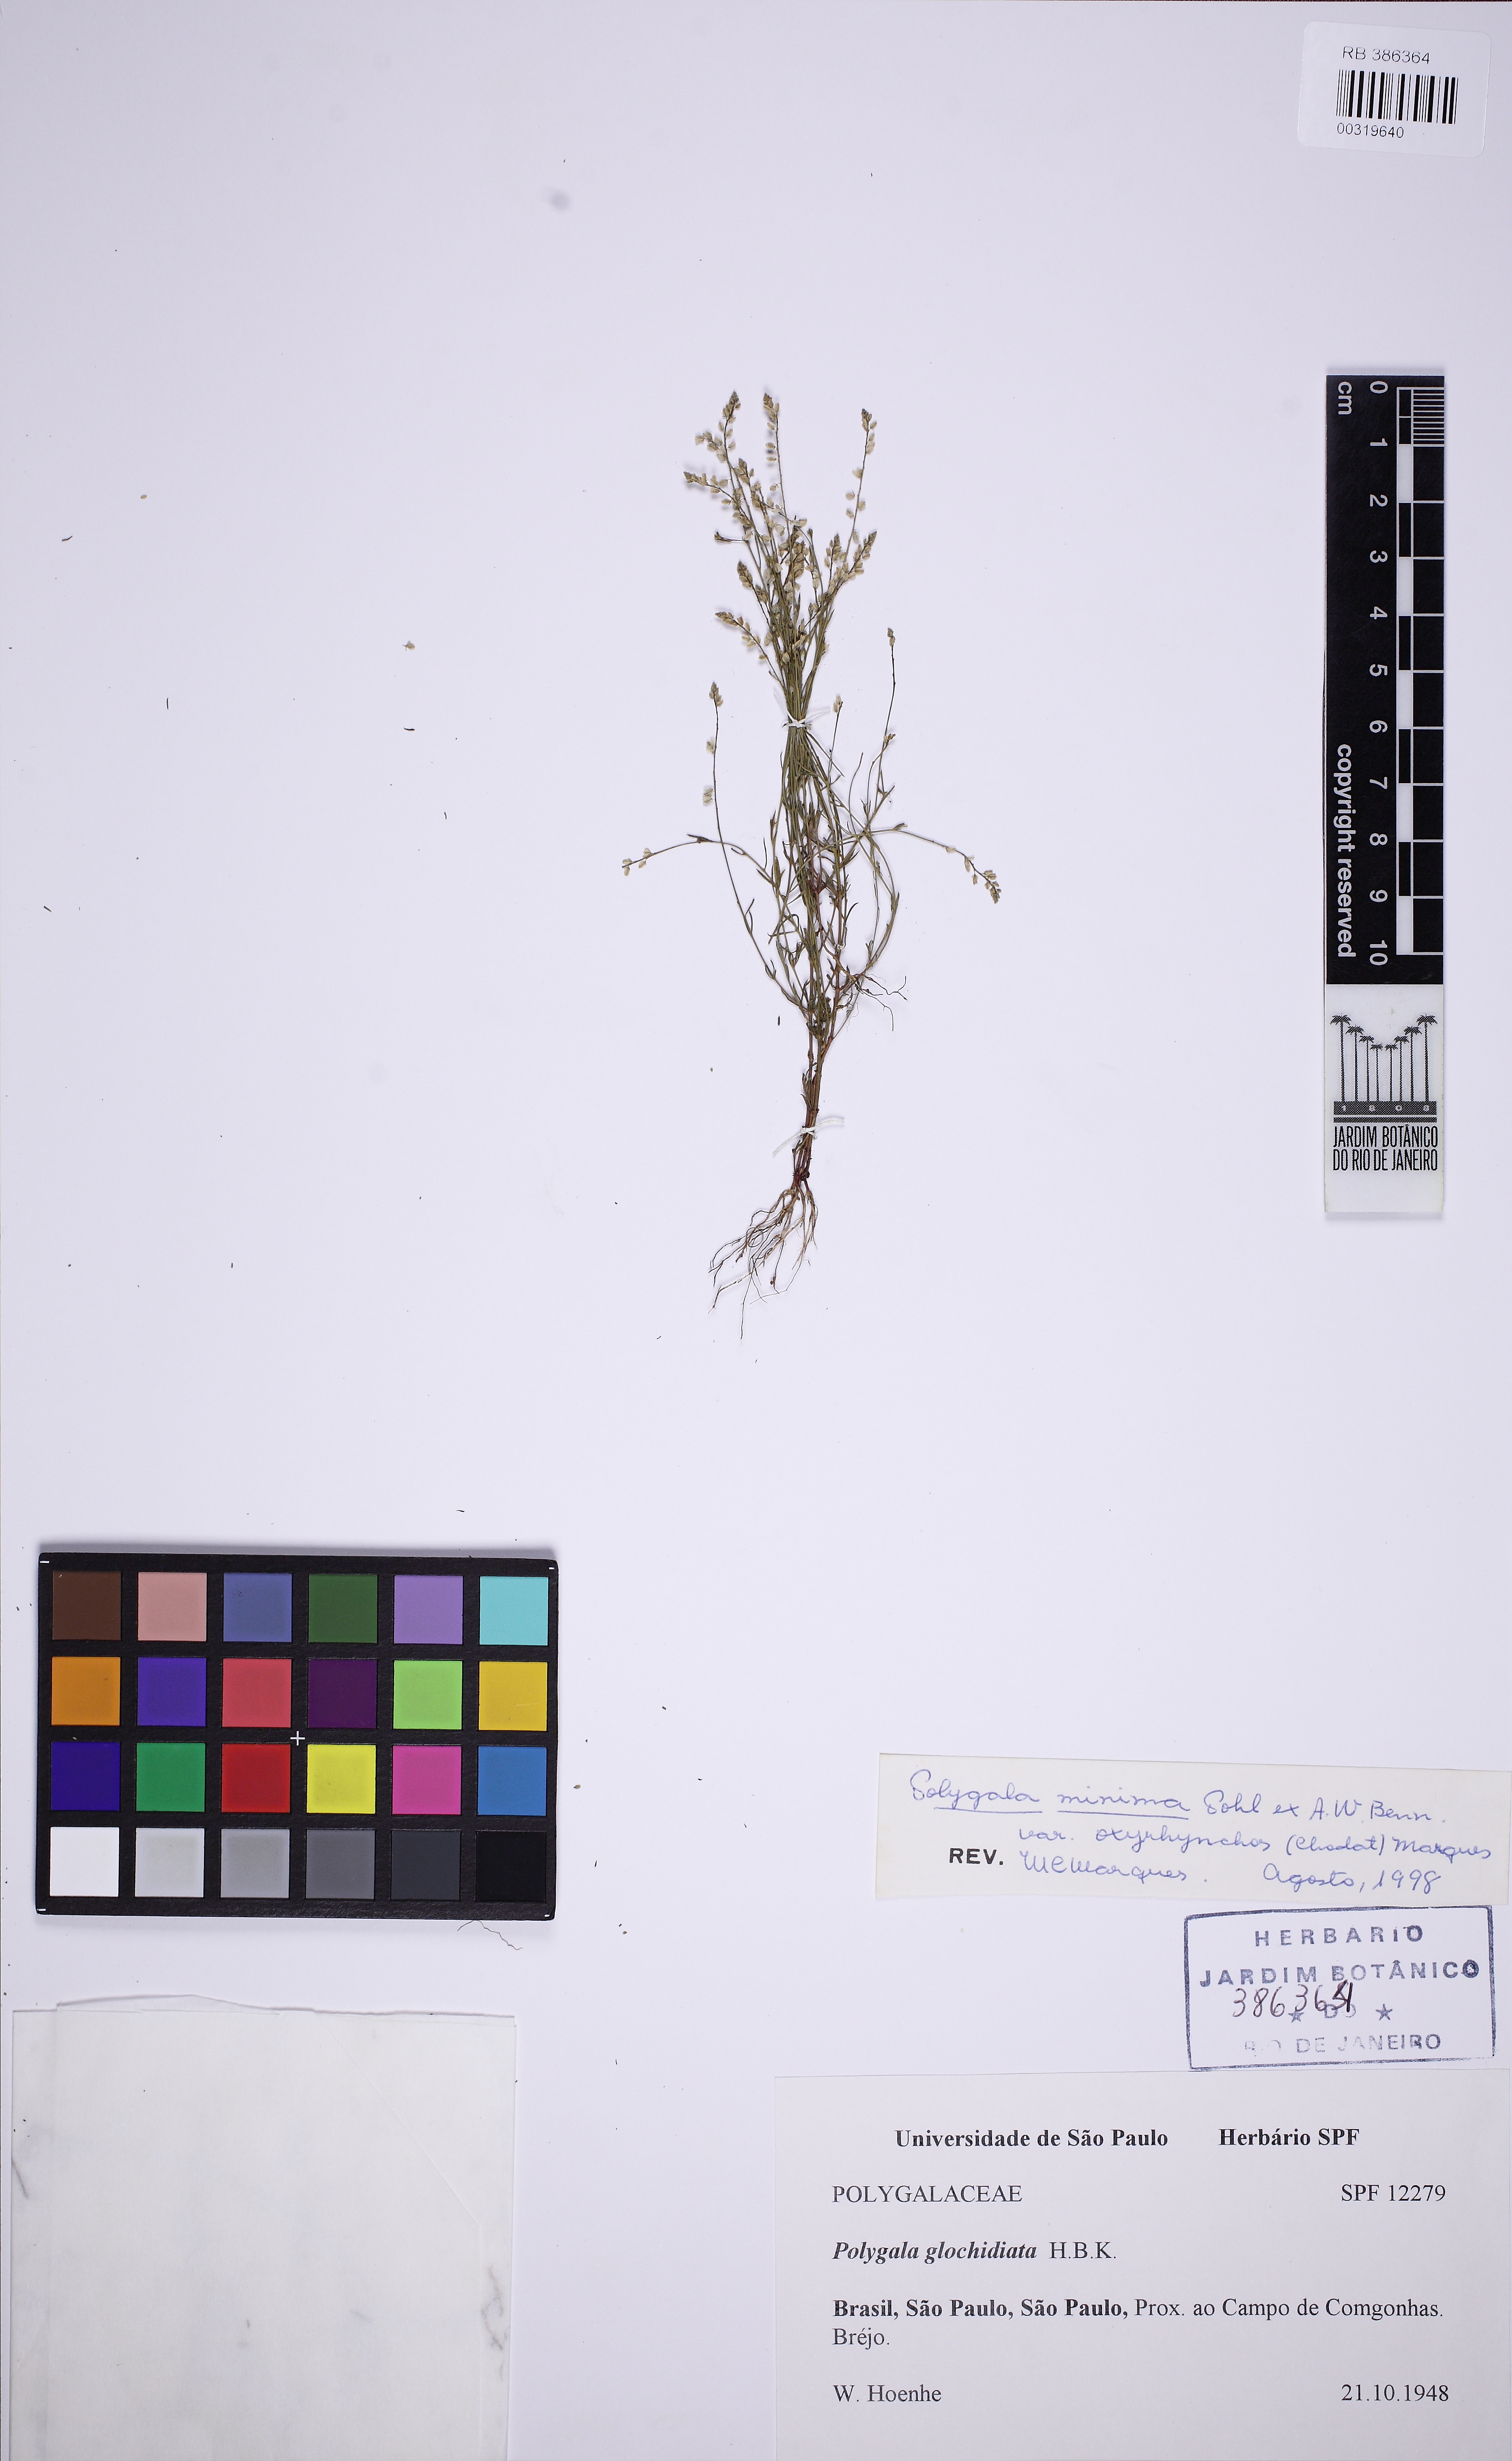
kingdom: Plantae
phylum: Tracheophyta
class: Magnoliopsida
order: Fabales
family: Polygalaceae
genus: Polygala
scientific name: Polygala glochidiata
